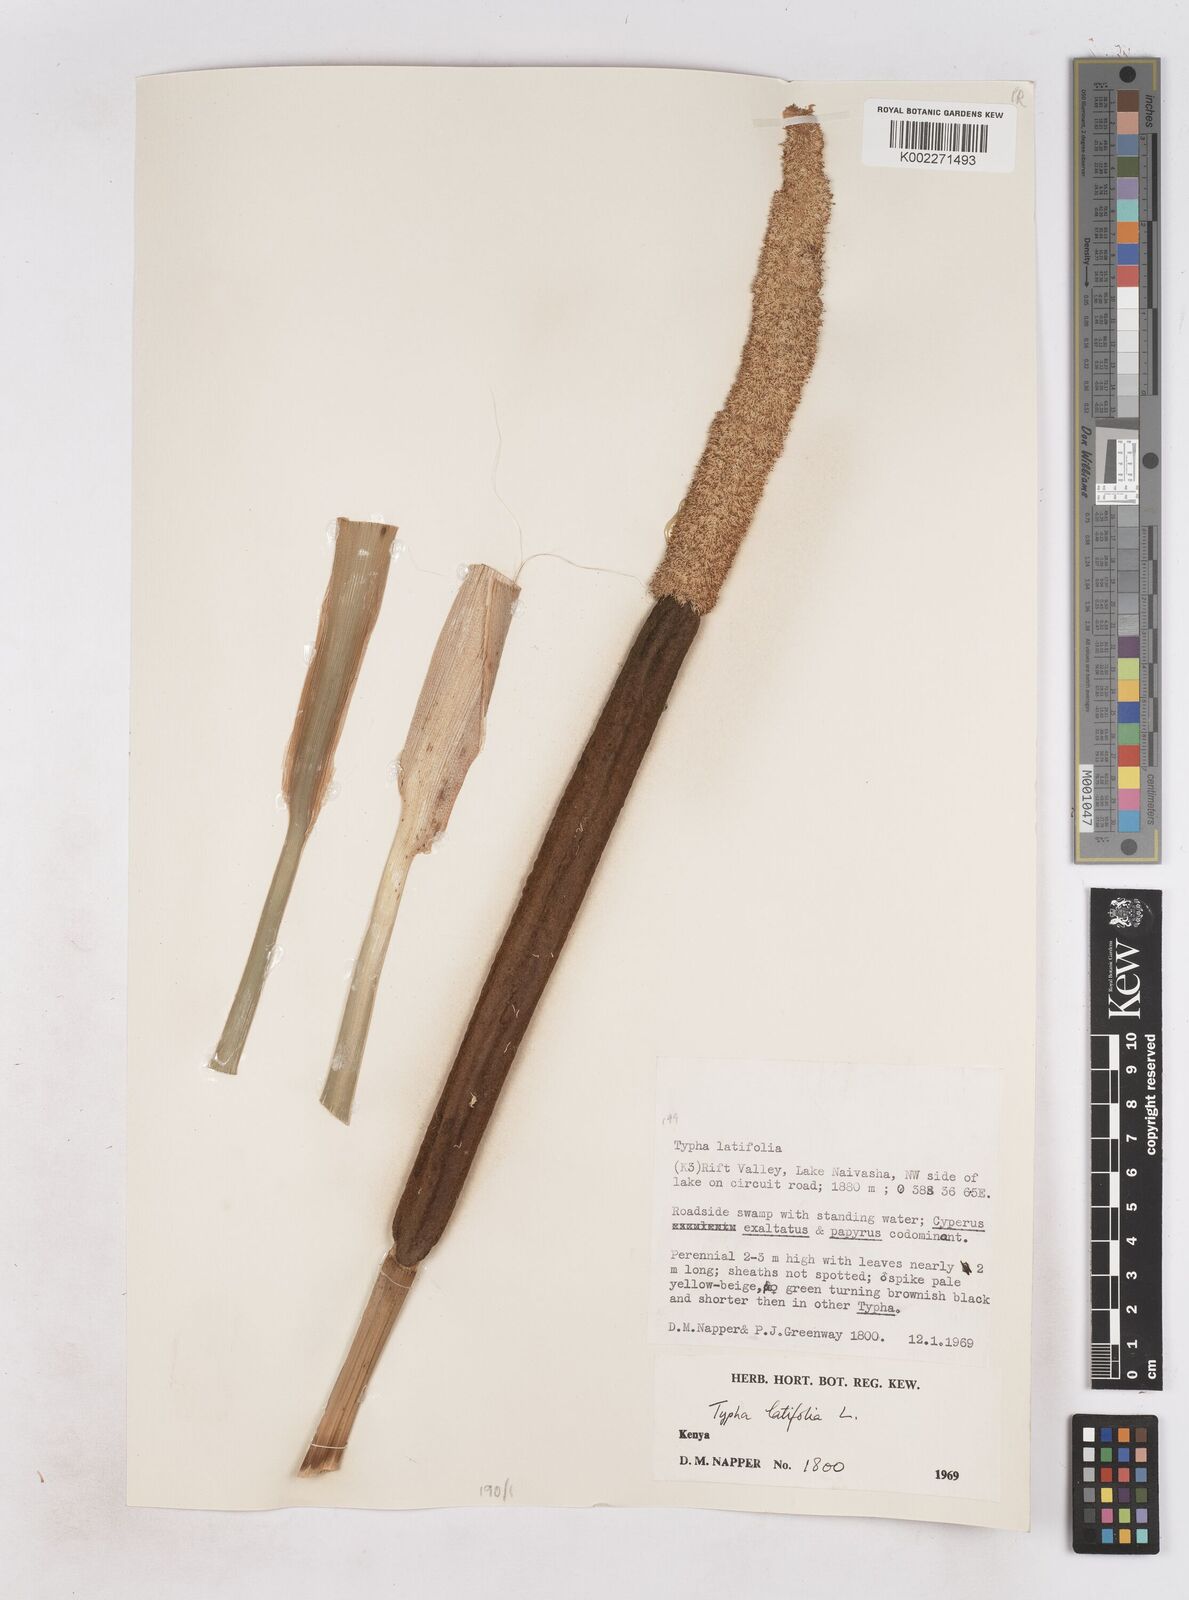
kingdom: Plantae
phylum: Tracheophyta
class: Liliopsida
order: Poales
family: Typhaceae
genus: Typha
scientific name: Typha latifolia
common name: Broadleaf cattail
